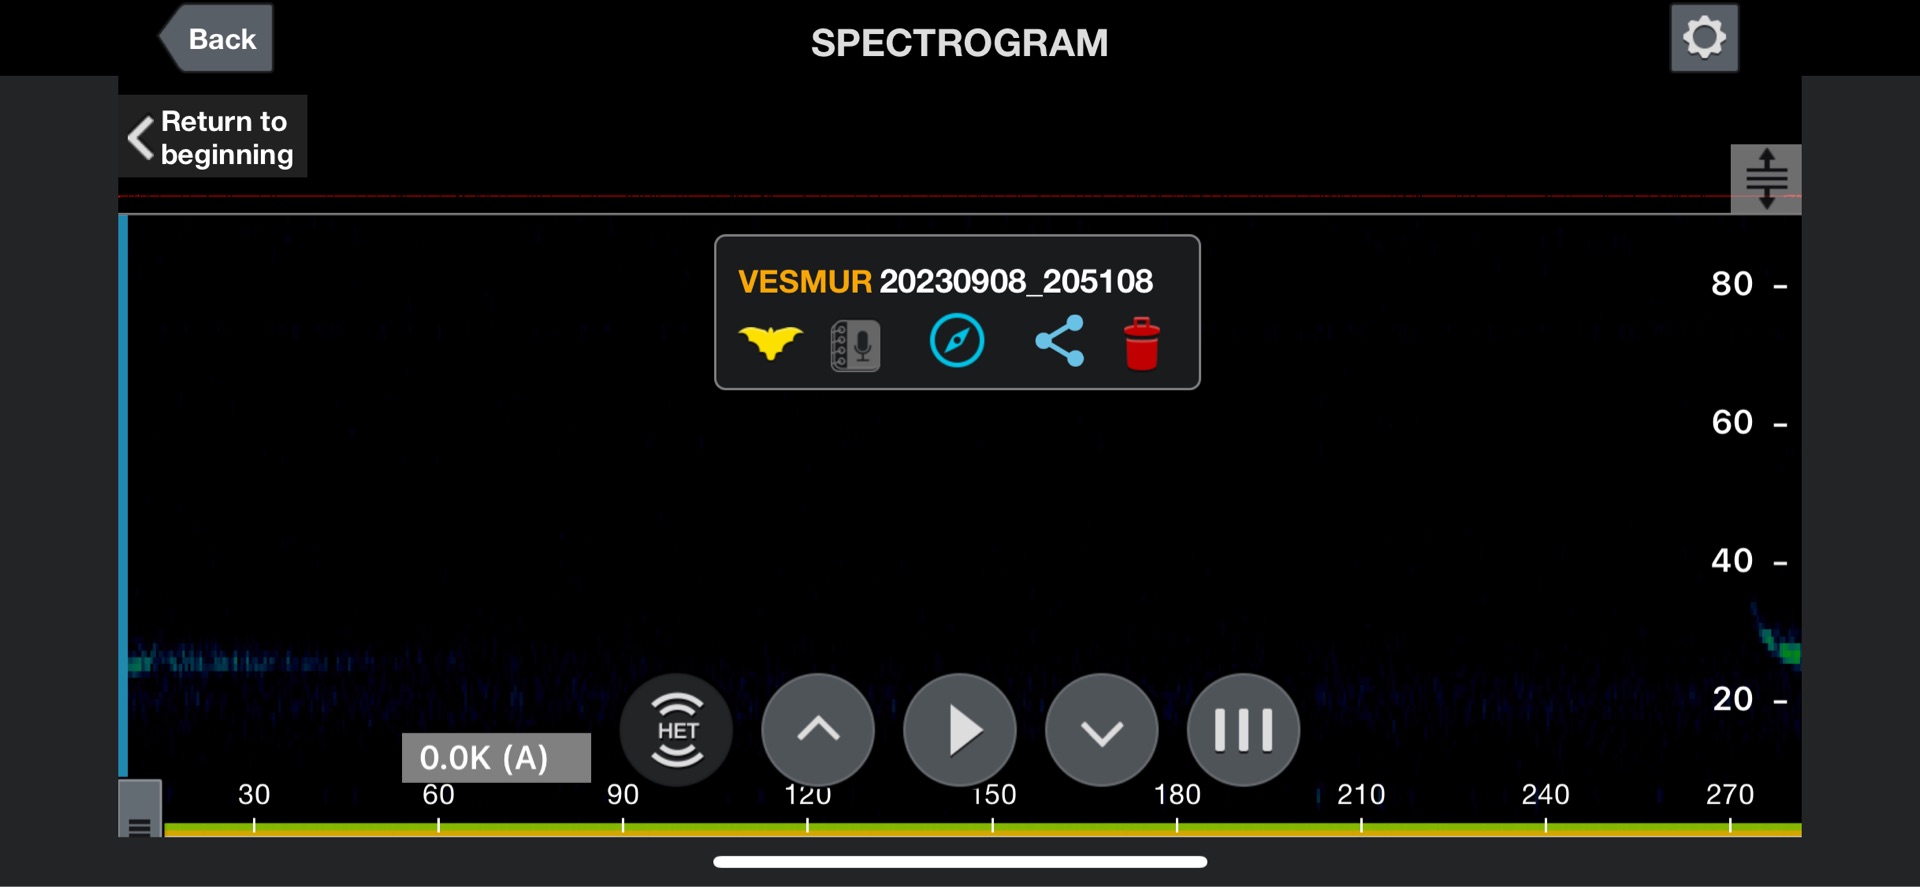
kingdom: Animalia
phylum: Chordata
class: Mammalia
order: Chiroptera
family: Vespertilionidae
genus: Vespertilio
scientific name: Vespertilio murinus
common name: Skimmelflagermus
